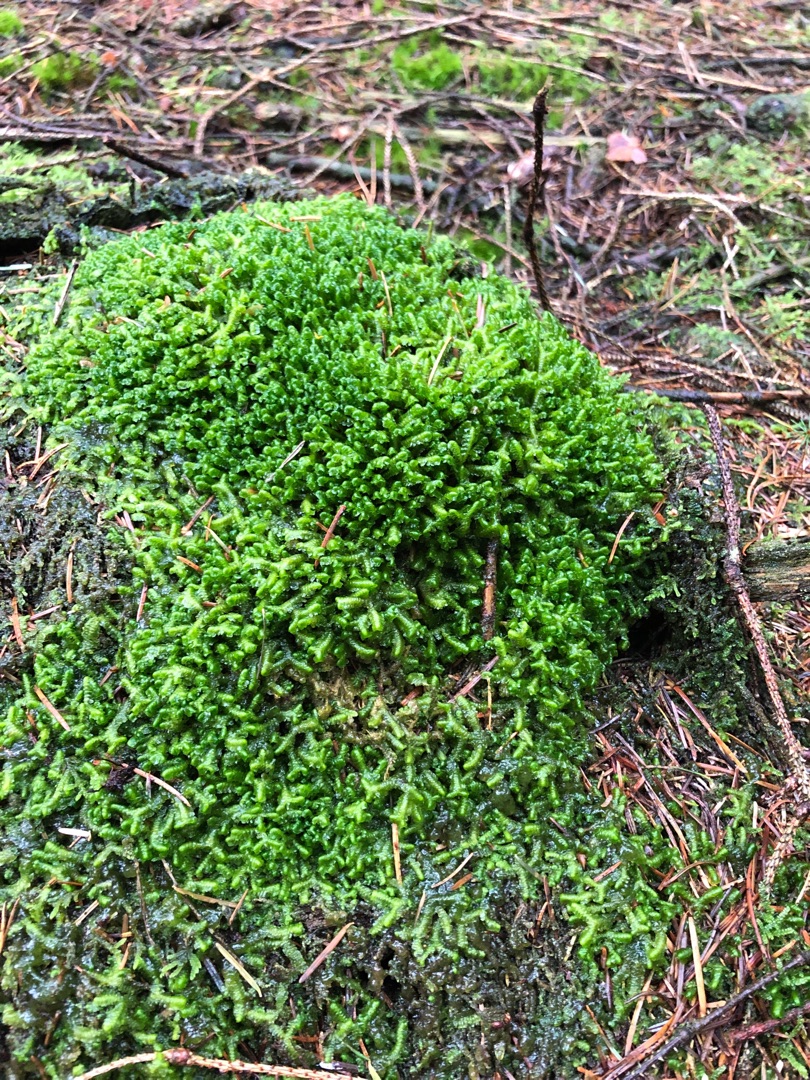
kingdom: Plantae
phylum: Marchantiophyta
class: Jungermanniopsida
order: Jungermanniales
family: Lepidoziaceae
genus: Bazzania
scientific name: Bazzania trilobata
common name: Stor styltemos
